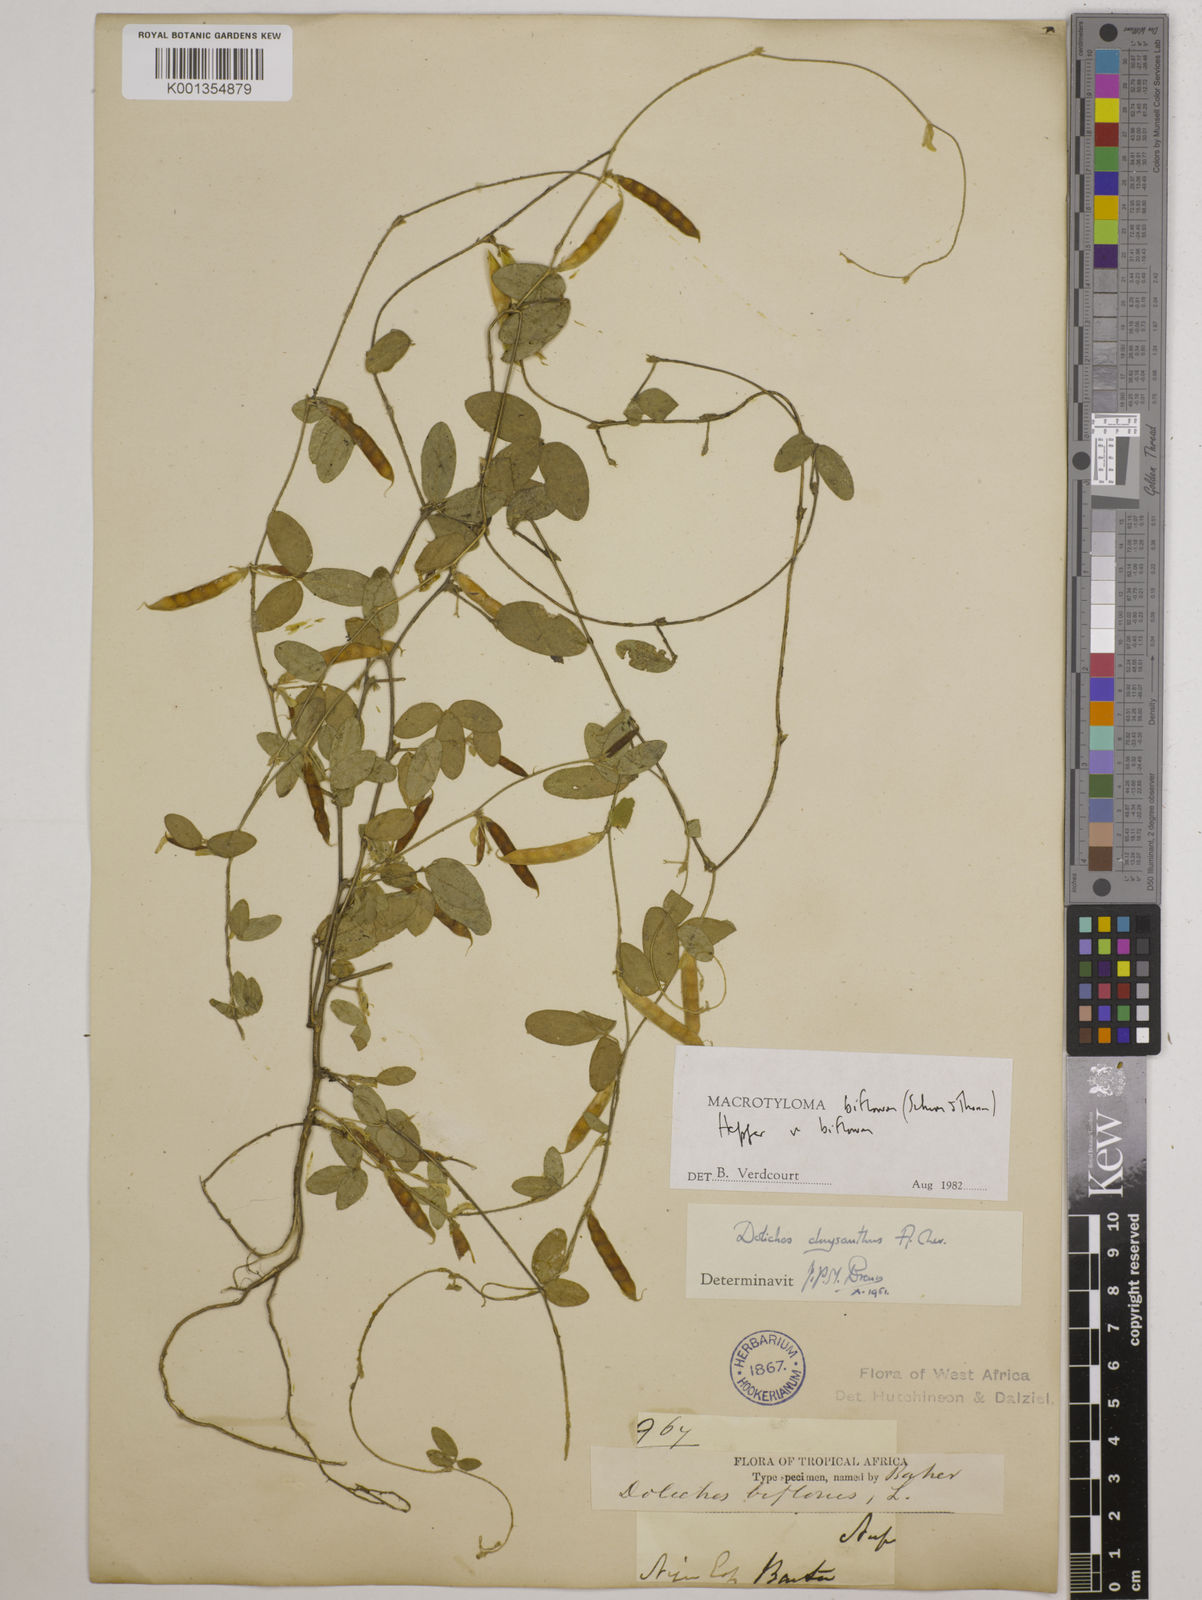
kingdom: Plantae
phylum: Tracheophyta
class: Magnoliopsida
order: Fabales
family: Fabaceae
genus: Macrotyloma
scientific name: Macrotyloma biflorum
